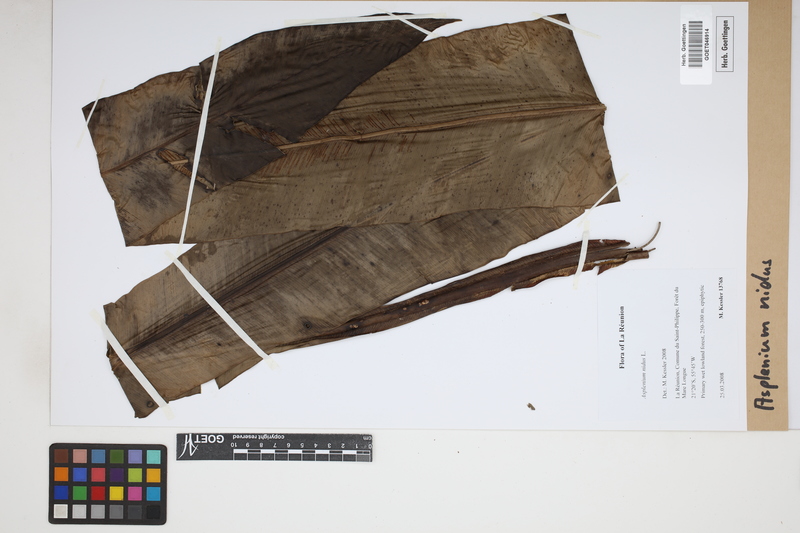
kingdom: Plantae
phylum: Tracheophyta
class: Polypodiopsida
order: Polypodiales
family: Aspleniaceae
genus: Asplenium
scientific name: Asplenium nidus
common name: Bird's-nest fern
